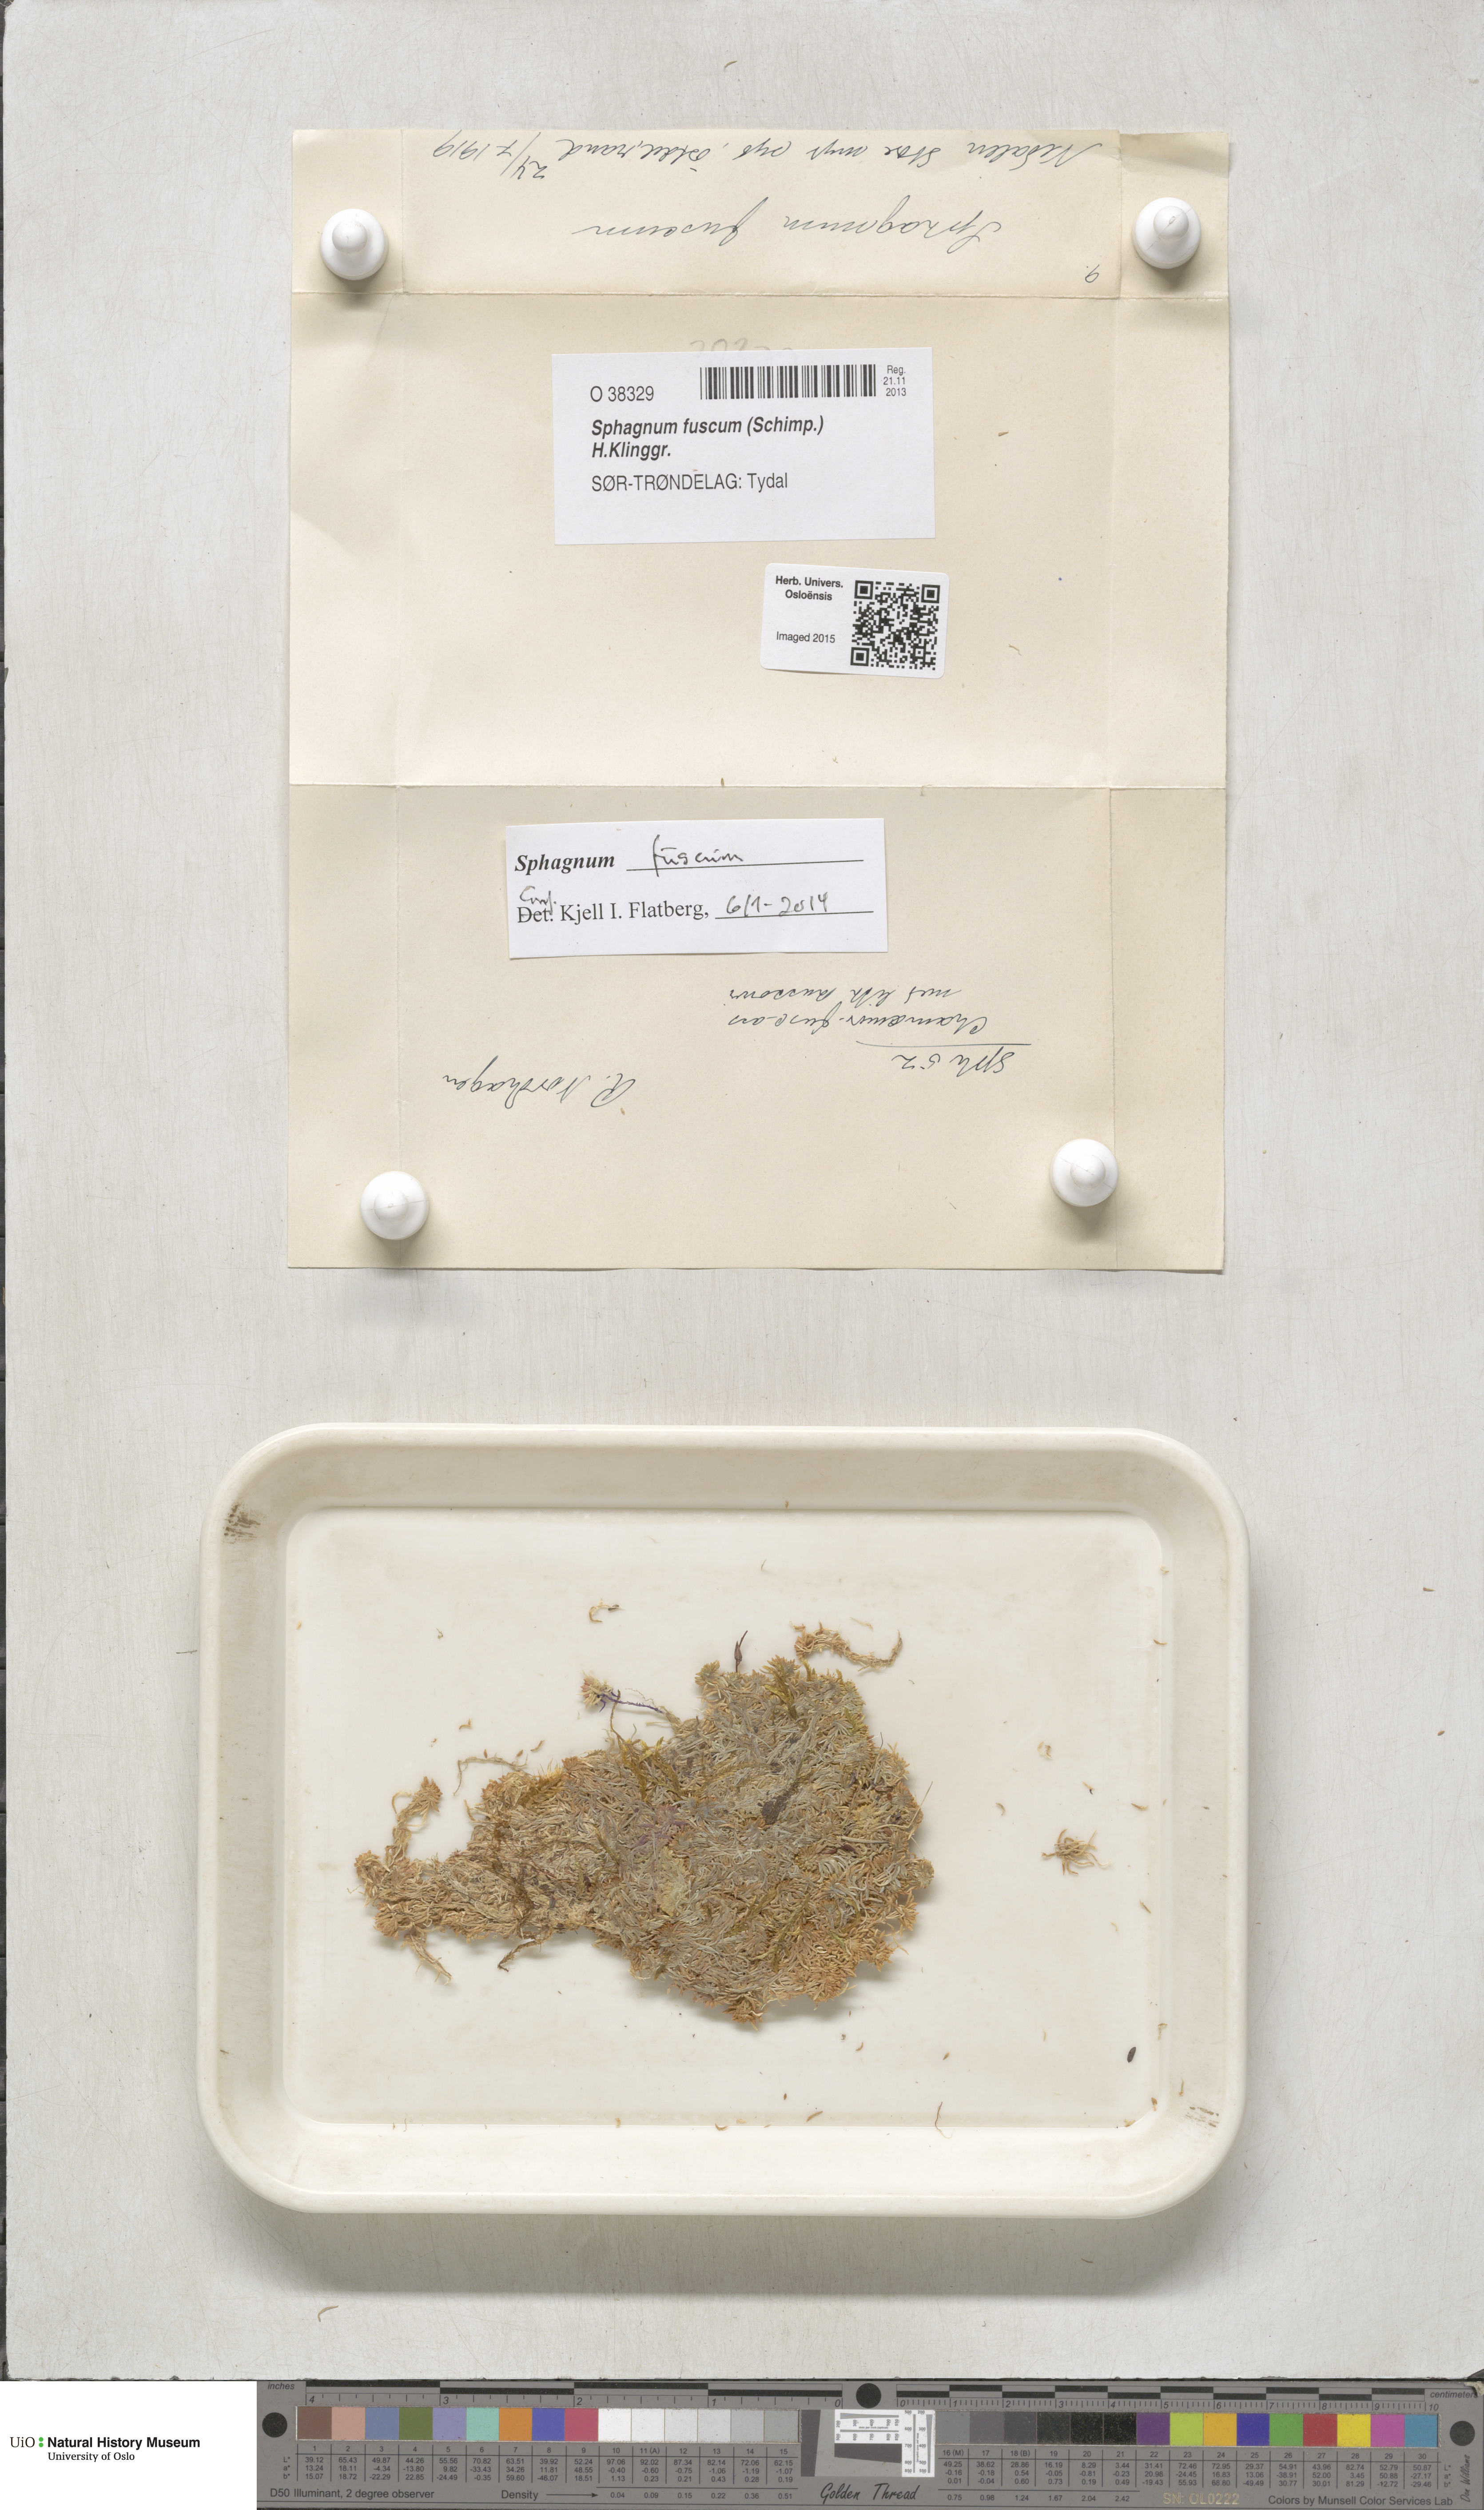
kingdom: Plantae
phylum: Bryophyta
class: Sphagnopsida
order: Sphagnales
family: Sphagnaceae
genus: Sphagnum
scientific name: Sphagnum fuscum
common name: Brown peat moss
